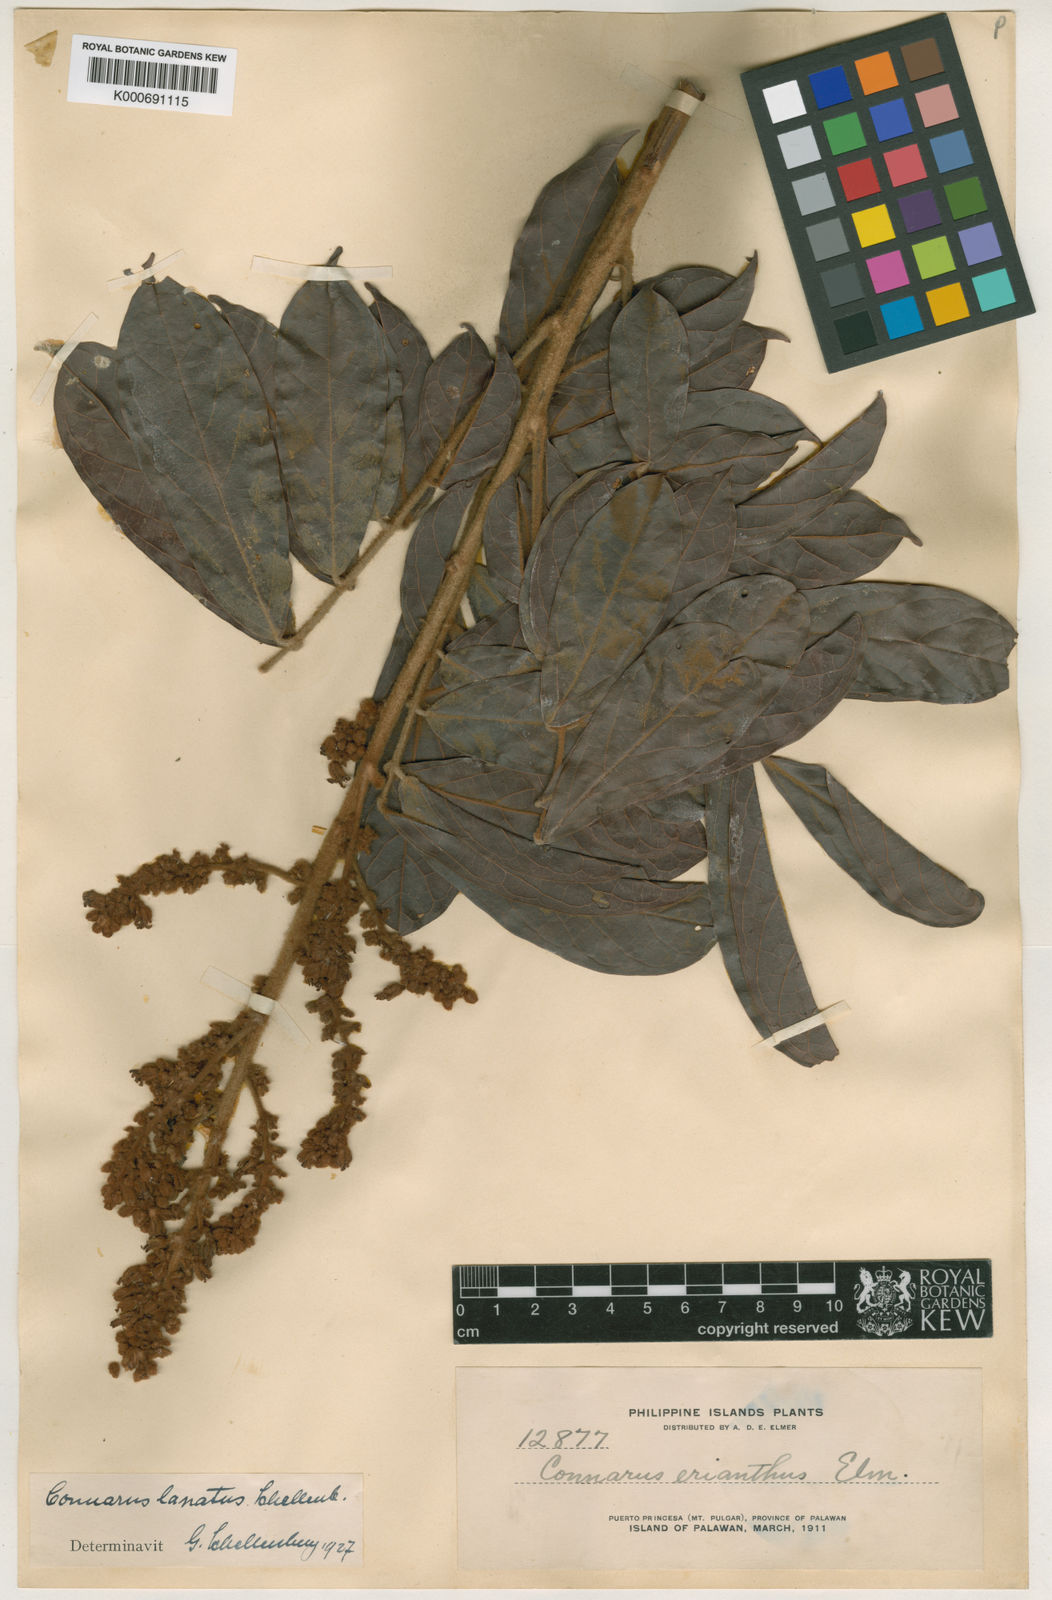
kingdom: Plantae
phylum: Tracheophyta
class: Magnoliopsida
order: Oxalidales
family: Connaraceae
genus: Connarus
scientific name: Connarus culionensis
